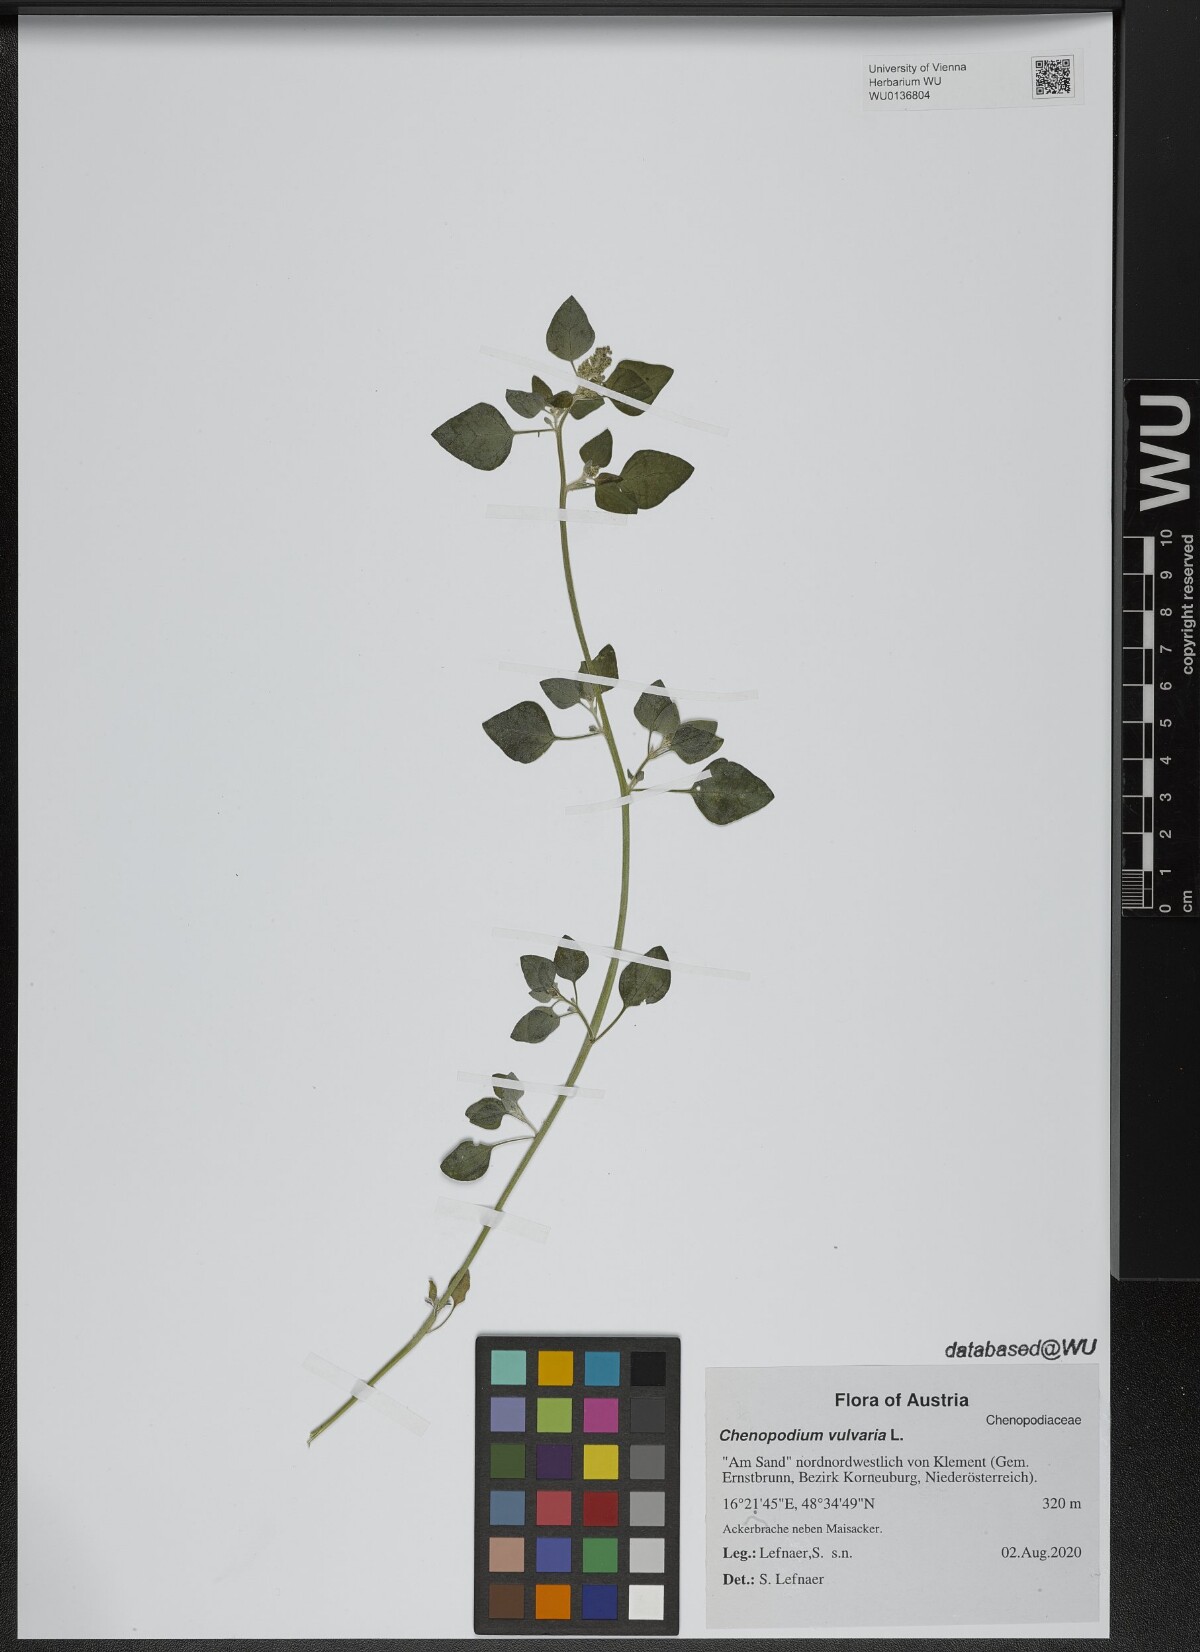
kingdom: Plantae
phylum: Tracheophyta
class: Magnoliopsida
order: Caryophyllales
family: Amaranthaceae
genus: Chenopodium
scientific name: Chenopodium vulvaria
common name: Stinking goosefoot
